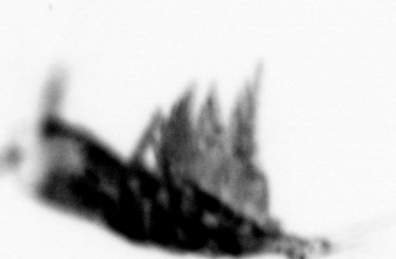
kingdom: Animalia
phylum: Arthropoda
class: Copepoda
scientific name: Copepoda
